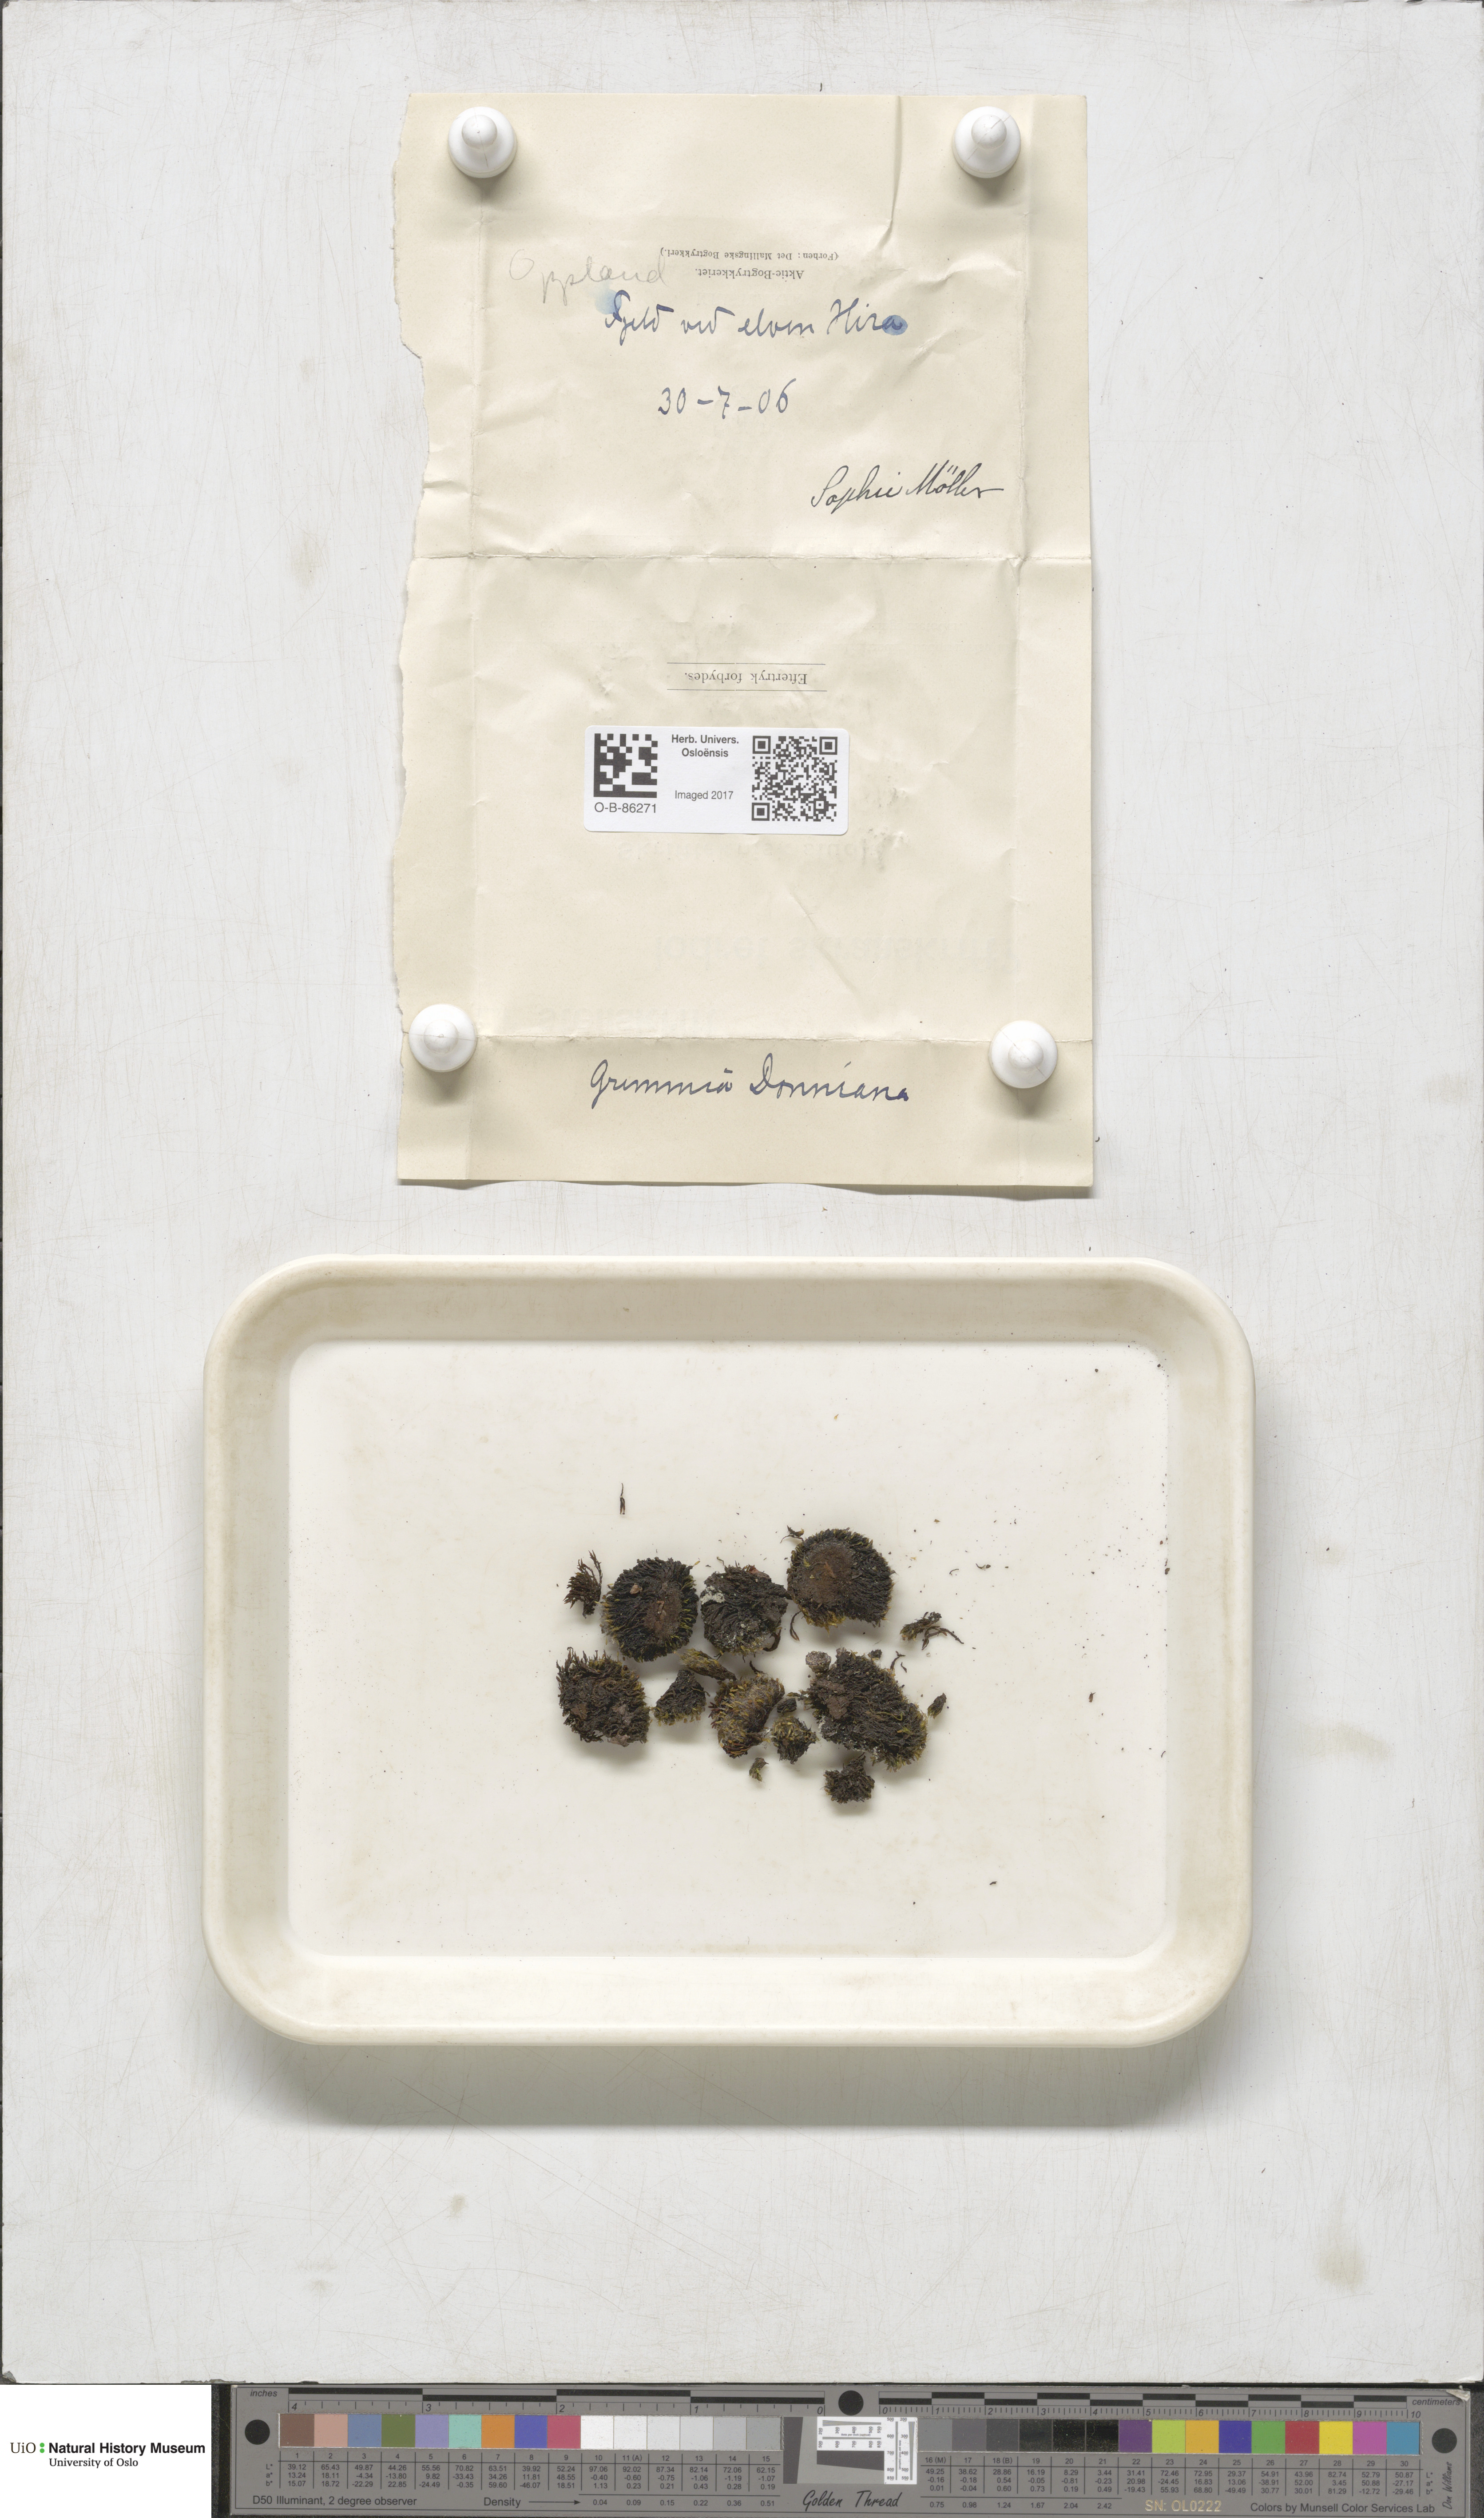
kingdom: Plantae
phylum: Bryophyta
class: Bryopsida
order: Grimmiales
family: Grimmiaceae
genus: Grimmia
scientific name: Grimmia donniana
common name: Donn's grimmia
